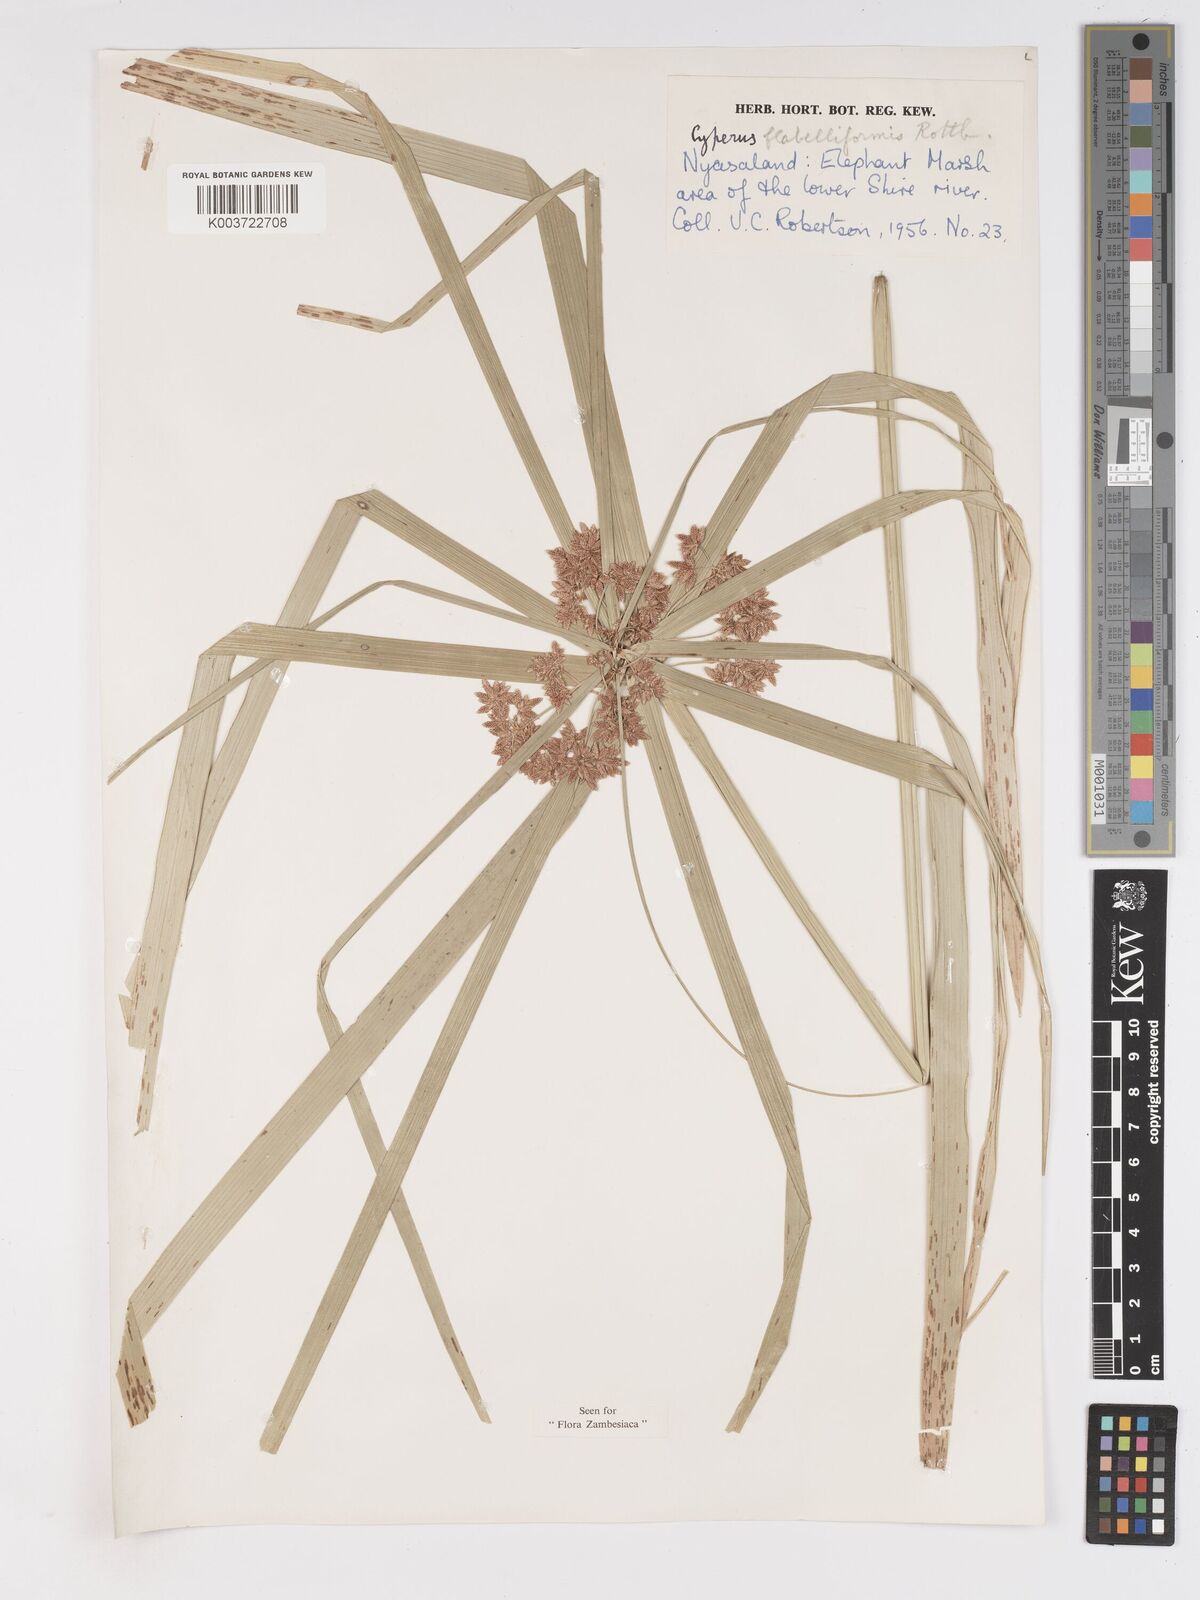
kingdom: Plantae
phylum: Tracheophyta
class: Liliopsida
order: Poales
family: Cyperaceae
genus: Cyperus
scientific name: Cyperus alternifolius
